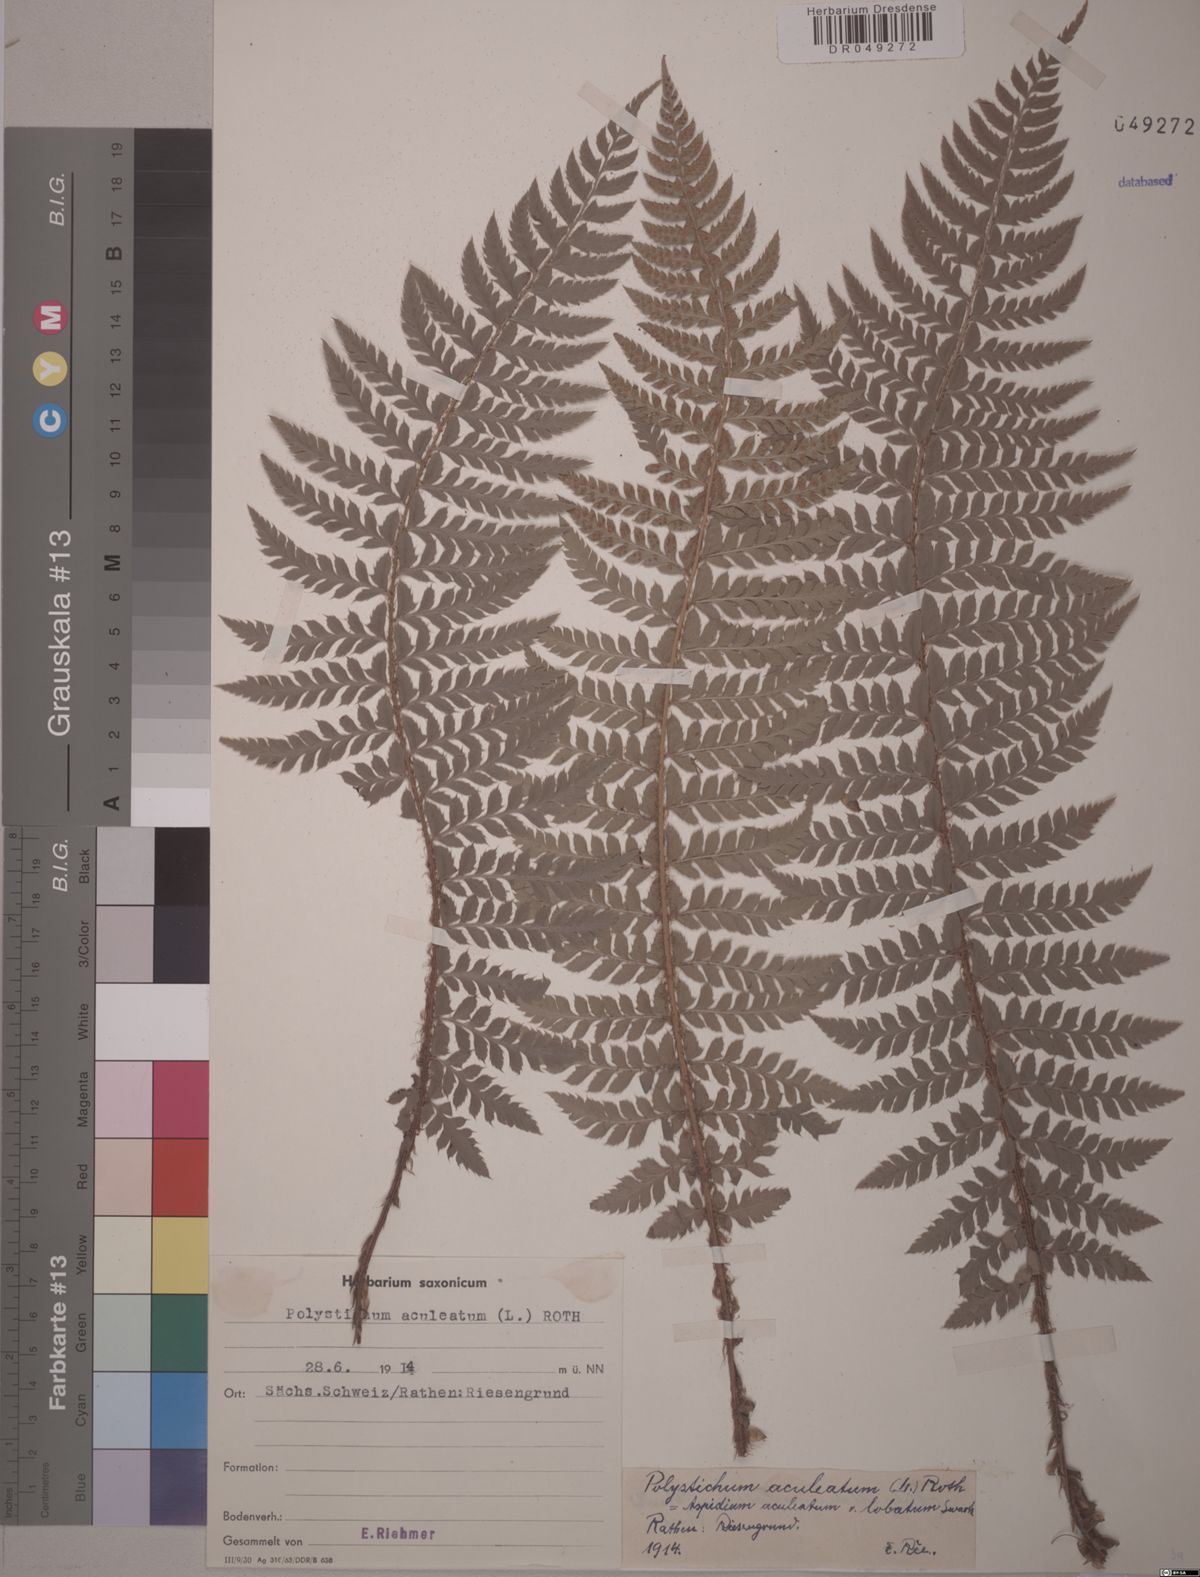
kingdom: Plantae
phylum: Tracheophyta
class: Polypodiopsida
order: Polypodiales
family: Dryopteridaceae
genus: Polystichum
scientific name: Polystichum aculeatum
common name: Hard shield-fern
